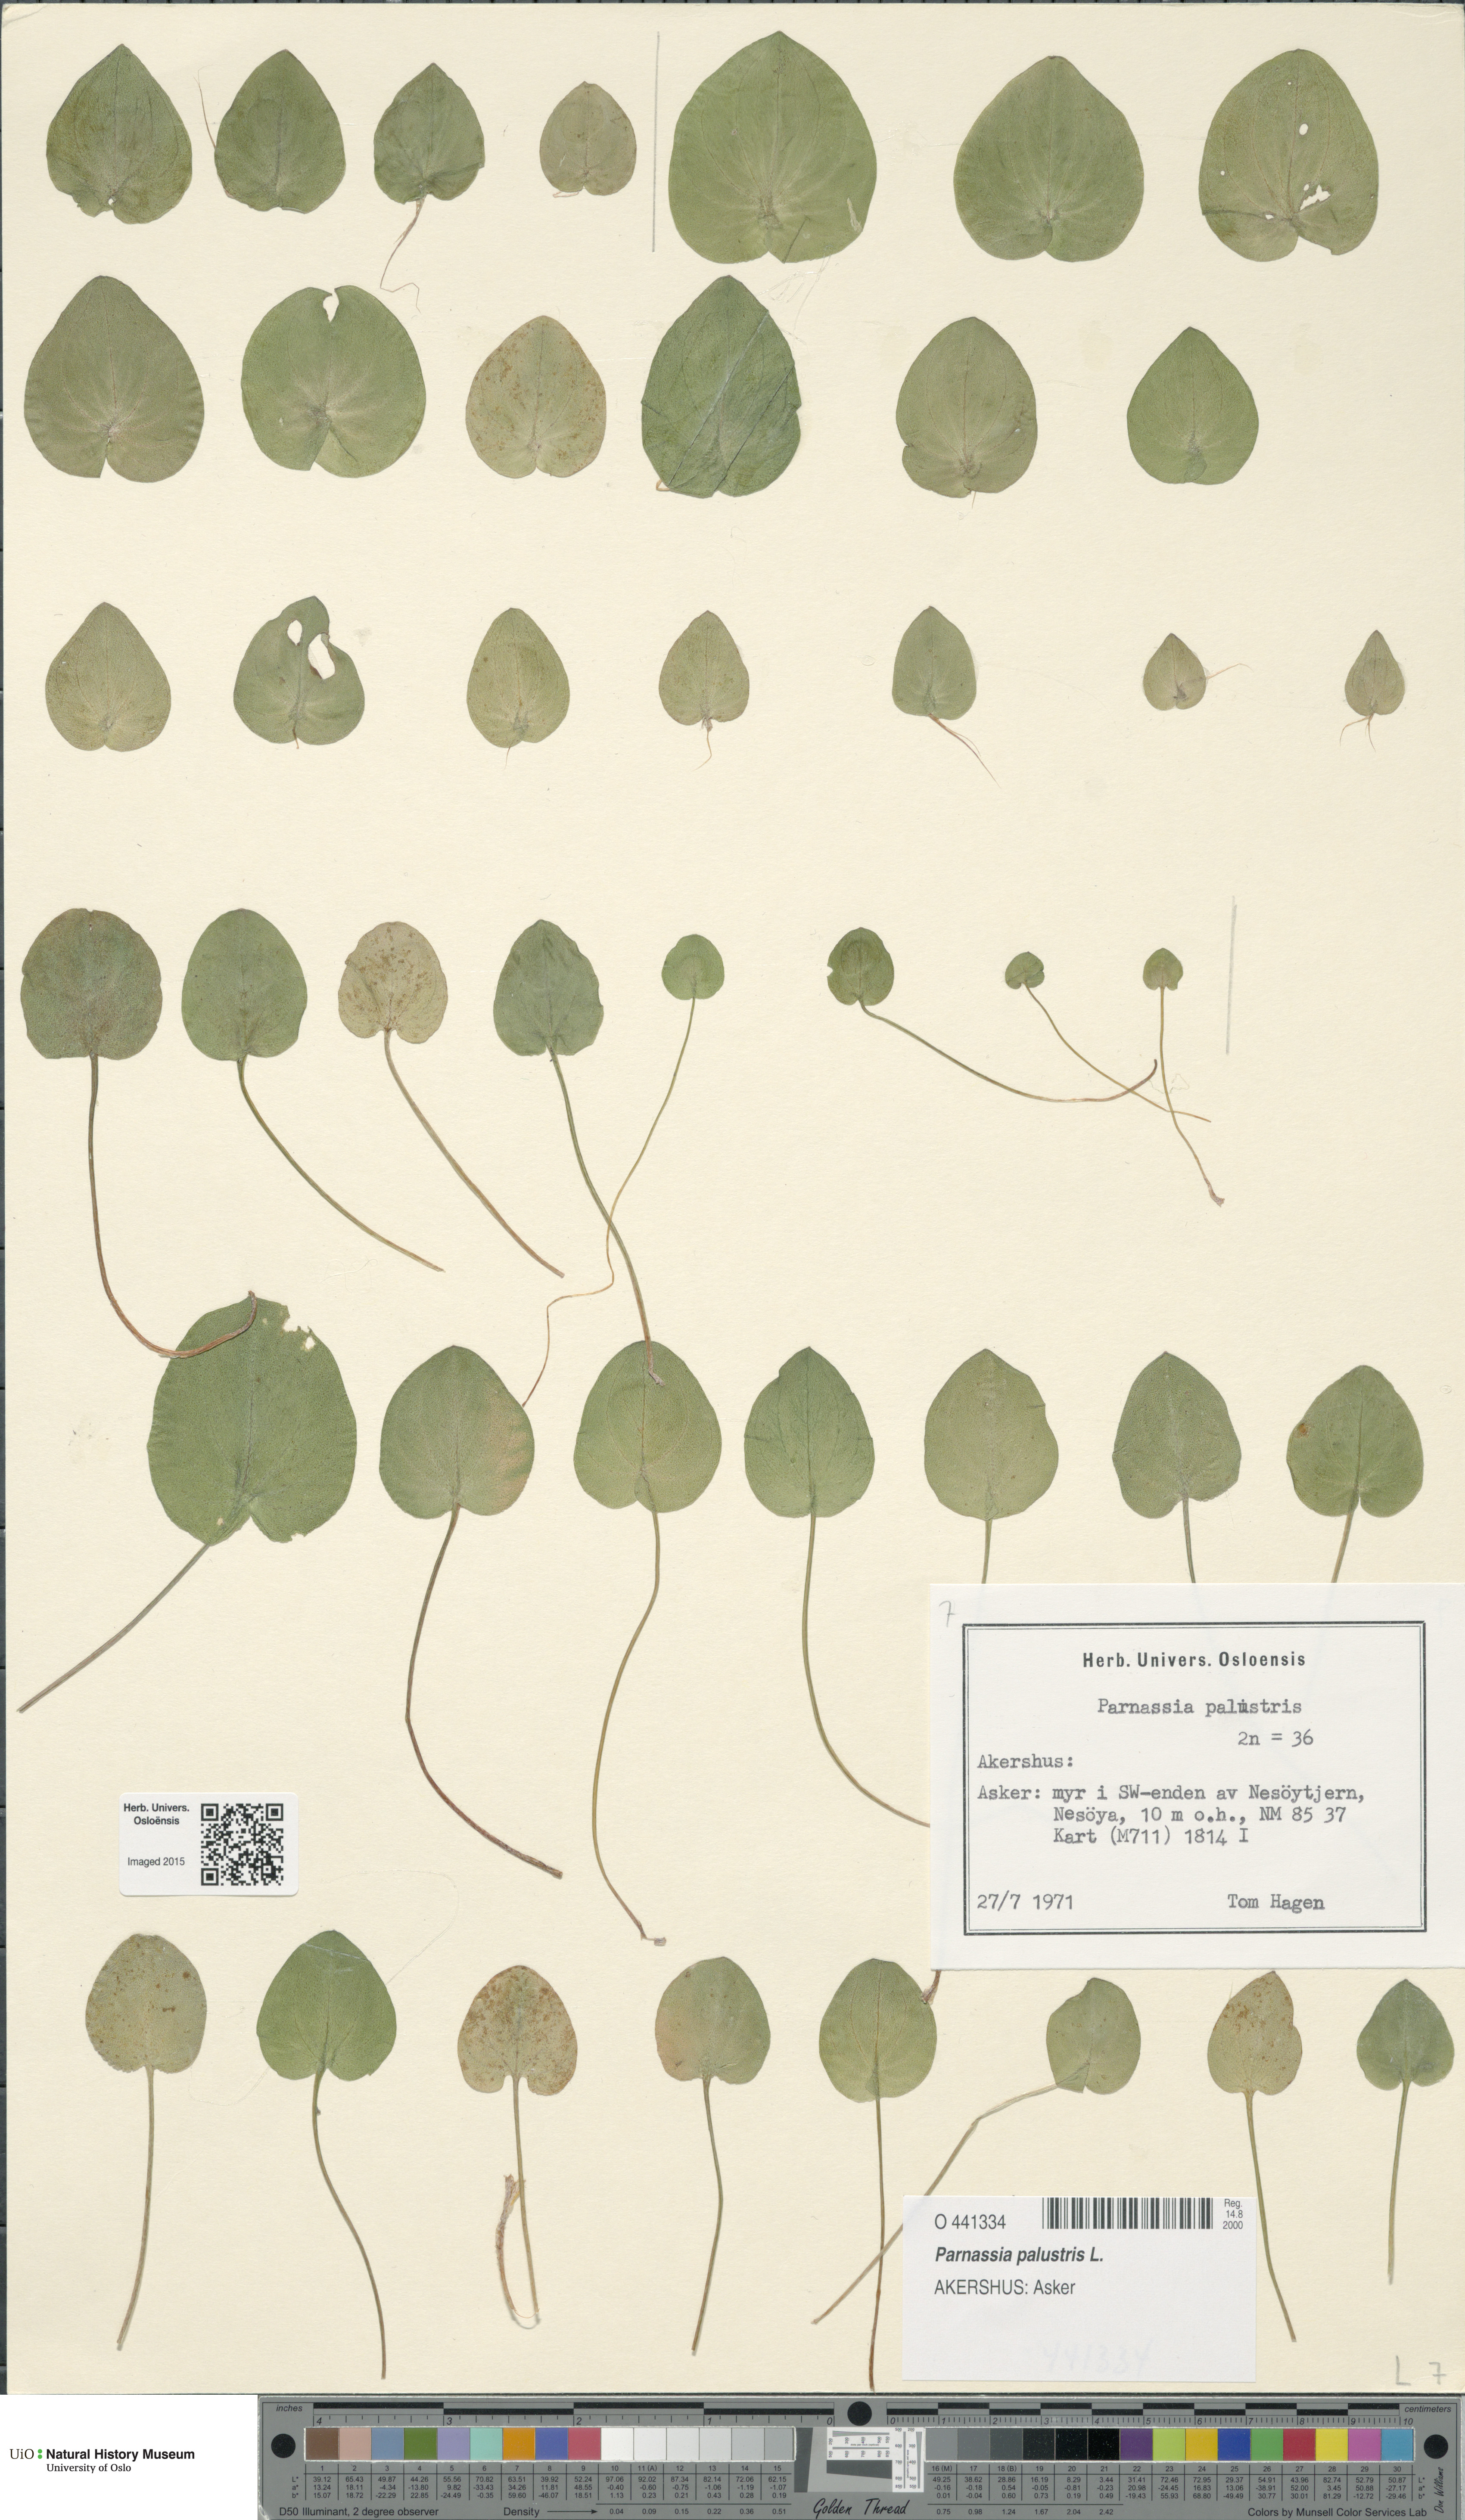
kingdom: Plantae
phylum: Tracheophyta
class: Magnoliopsida
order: Celastrales
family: Parnassiaceae
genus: Parnassia
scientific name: Parnassia palustris
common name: Grass-of-parnassus
